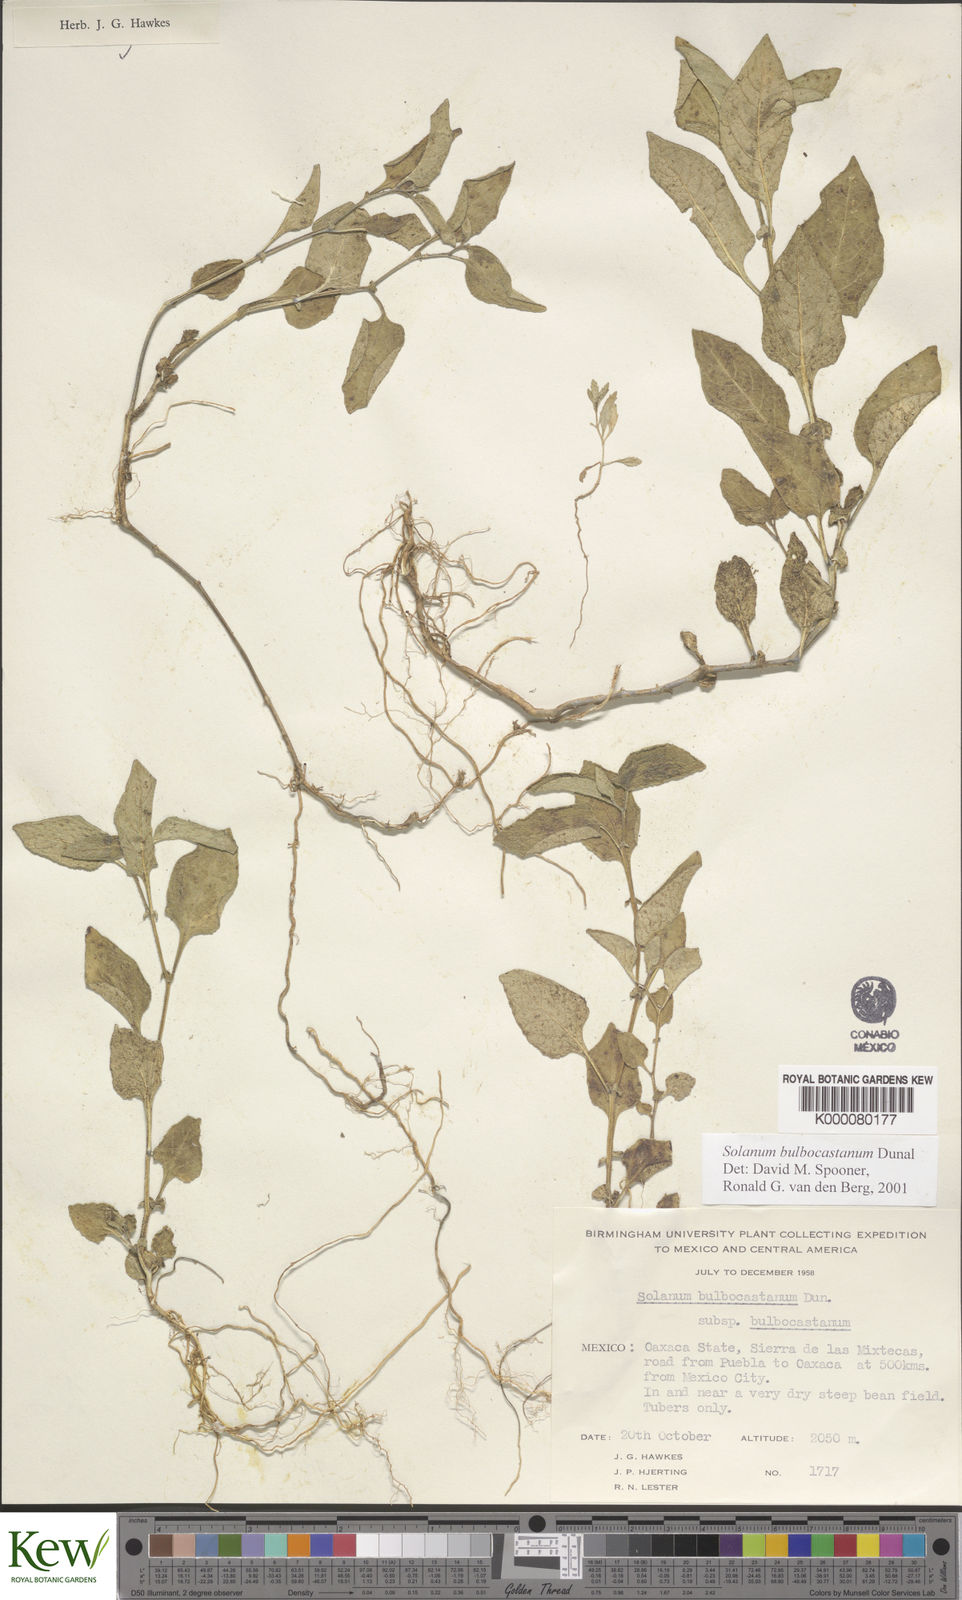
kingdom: Plantae
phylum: Tracheophyta
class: Magnoliopsida
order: Solanales
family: Solanaceae
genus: Solanum
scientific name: Solanum bulbocastanum
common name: Ornamental nightshade
